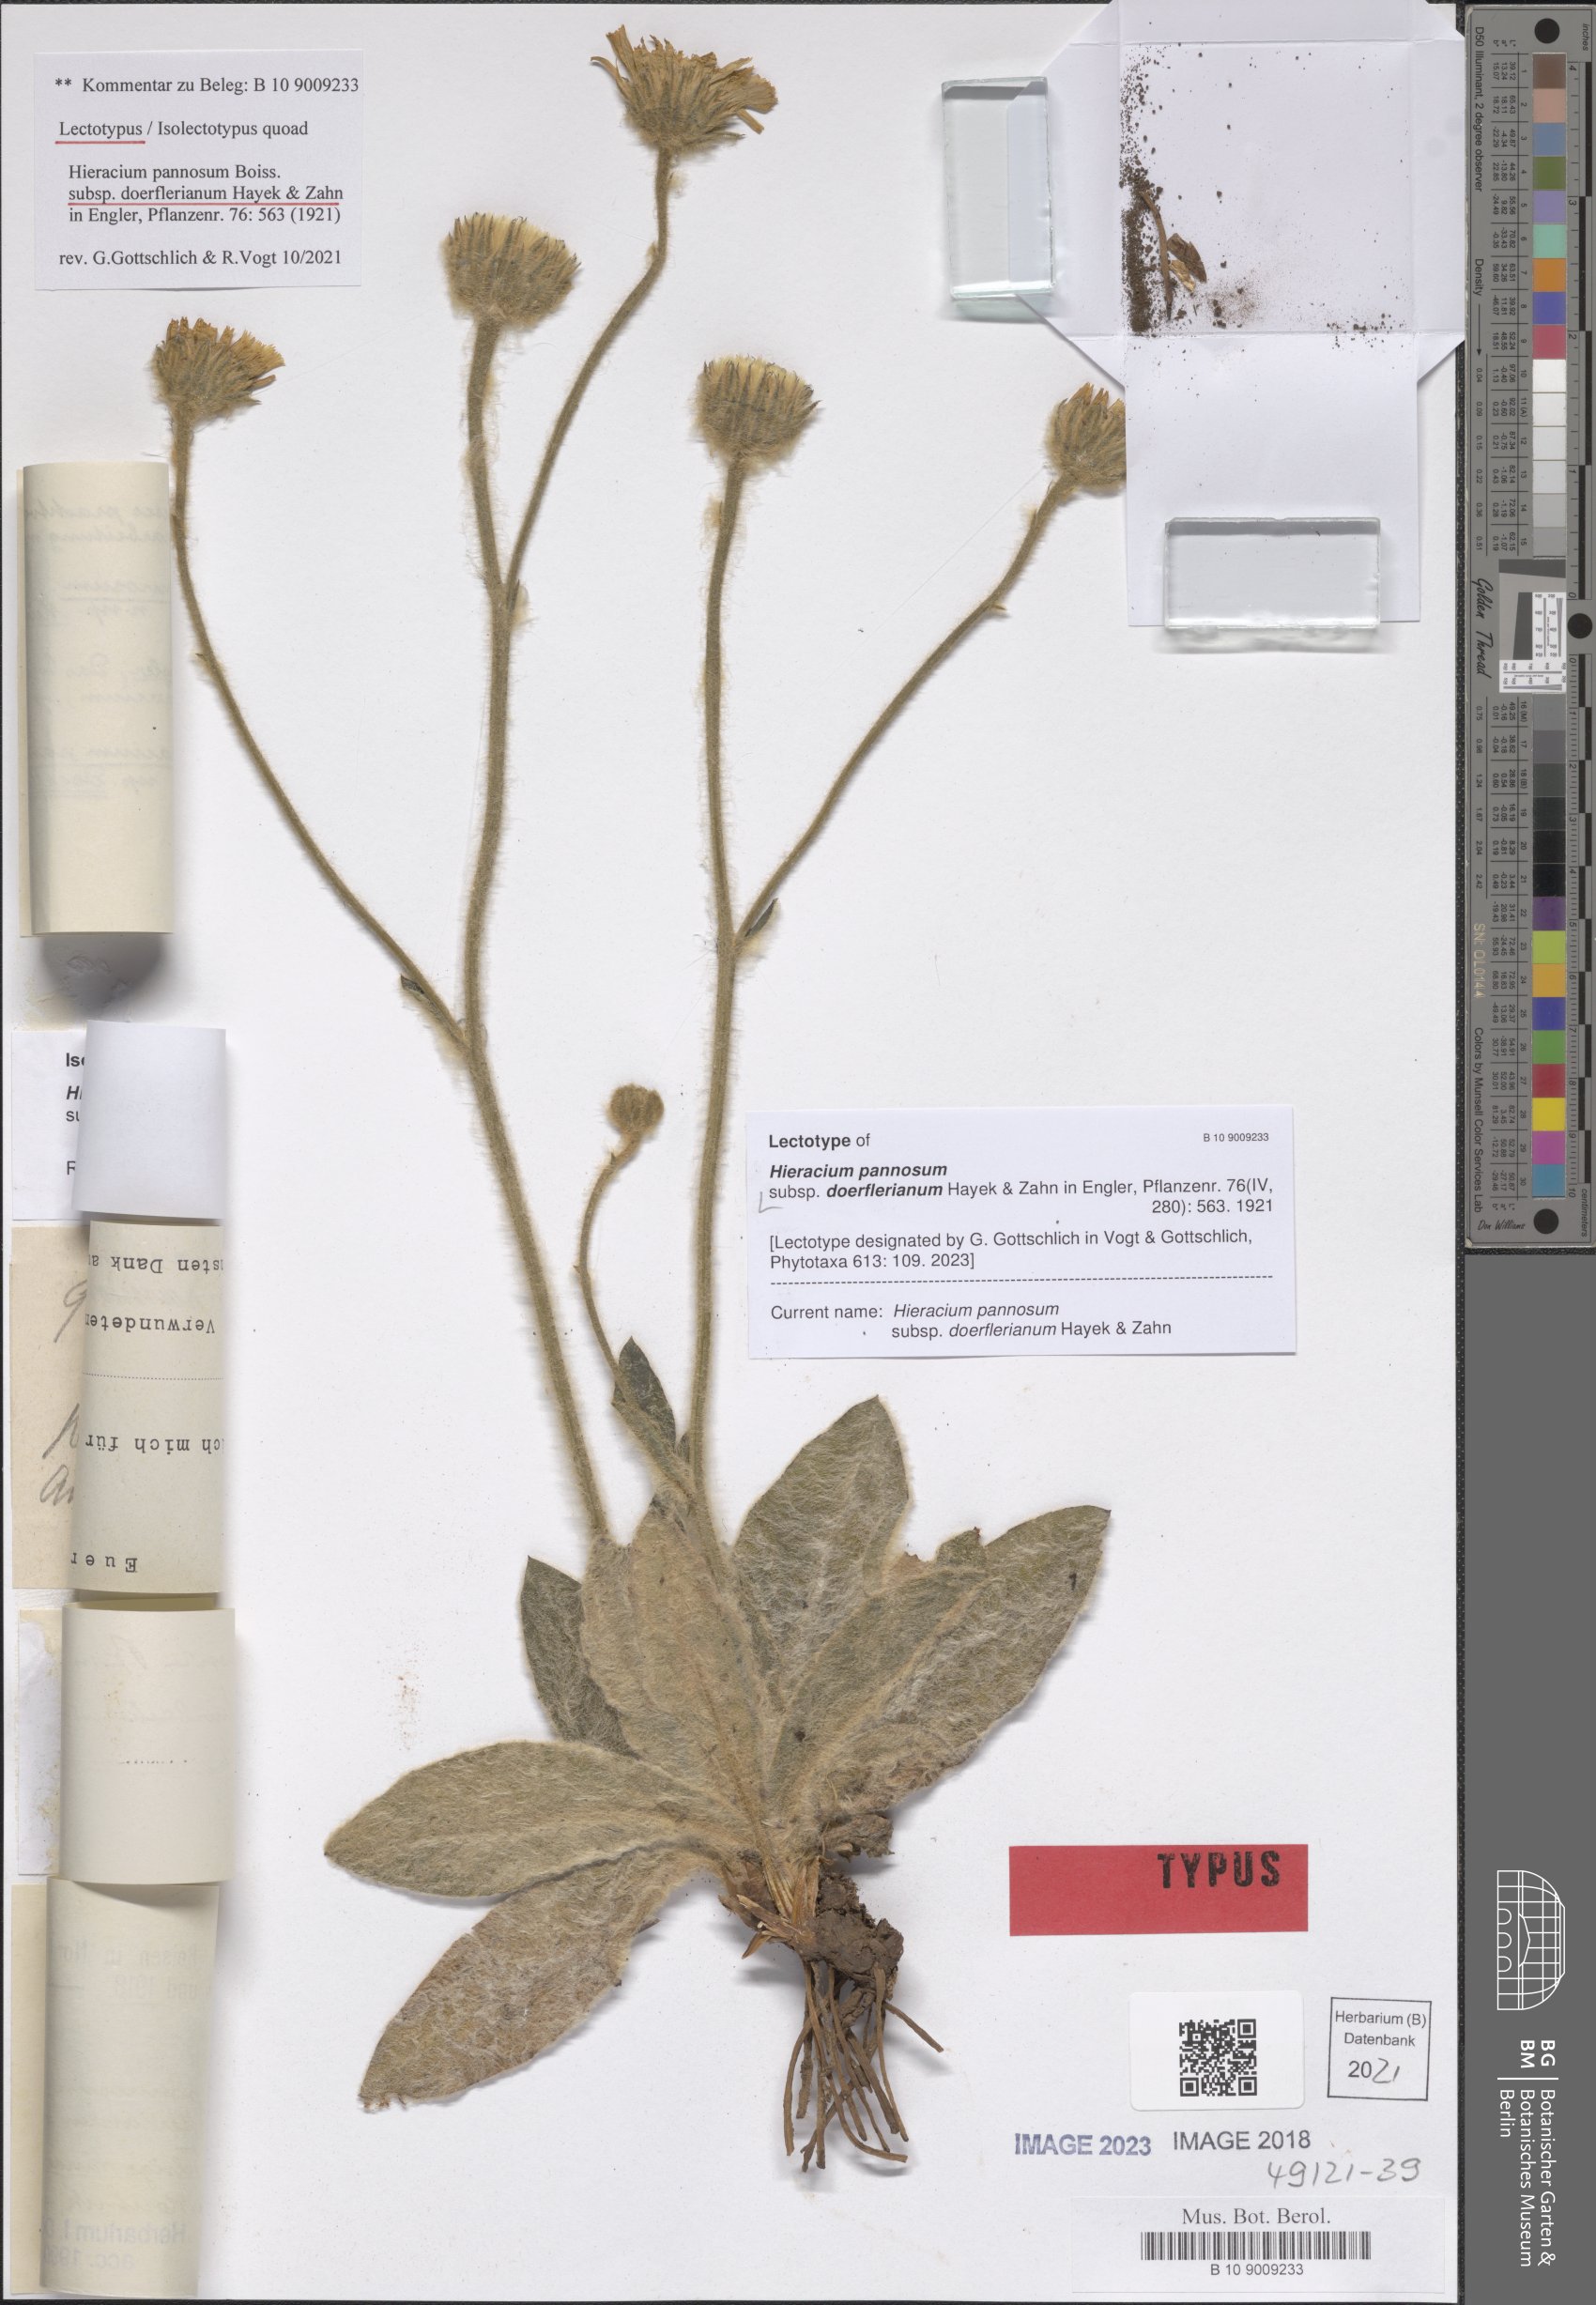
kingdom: Plantae
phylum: Tracheophyta
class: Magnoliopsida
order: Asterales
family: Asteraceae
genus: Hieracium
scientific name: Hieracium pannosum
